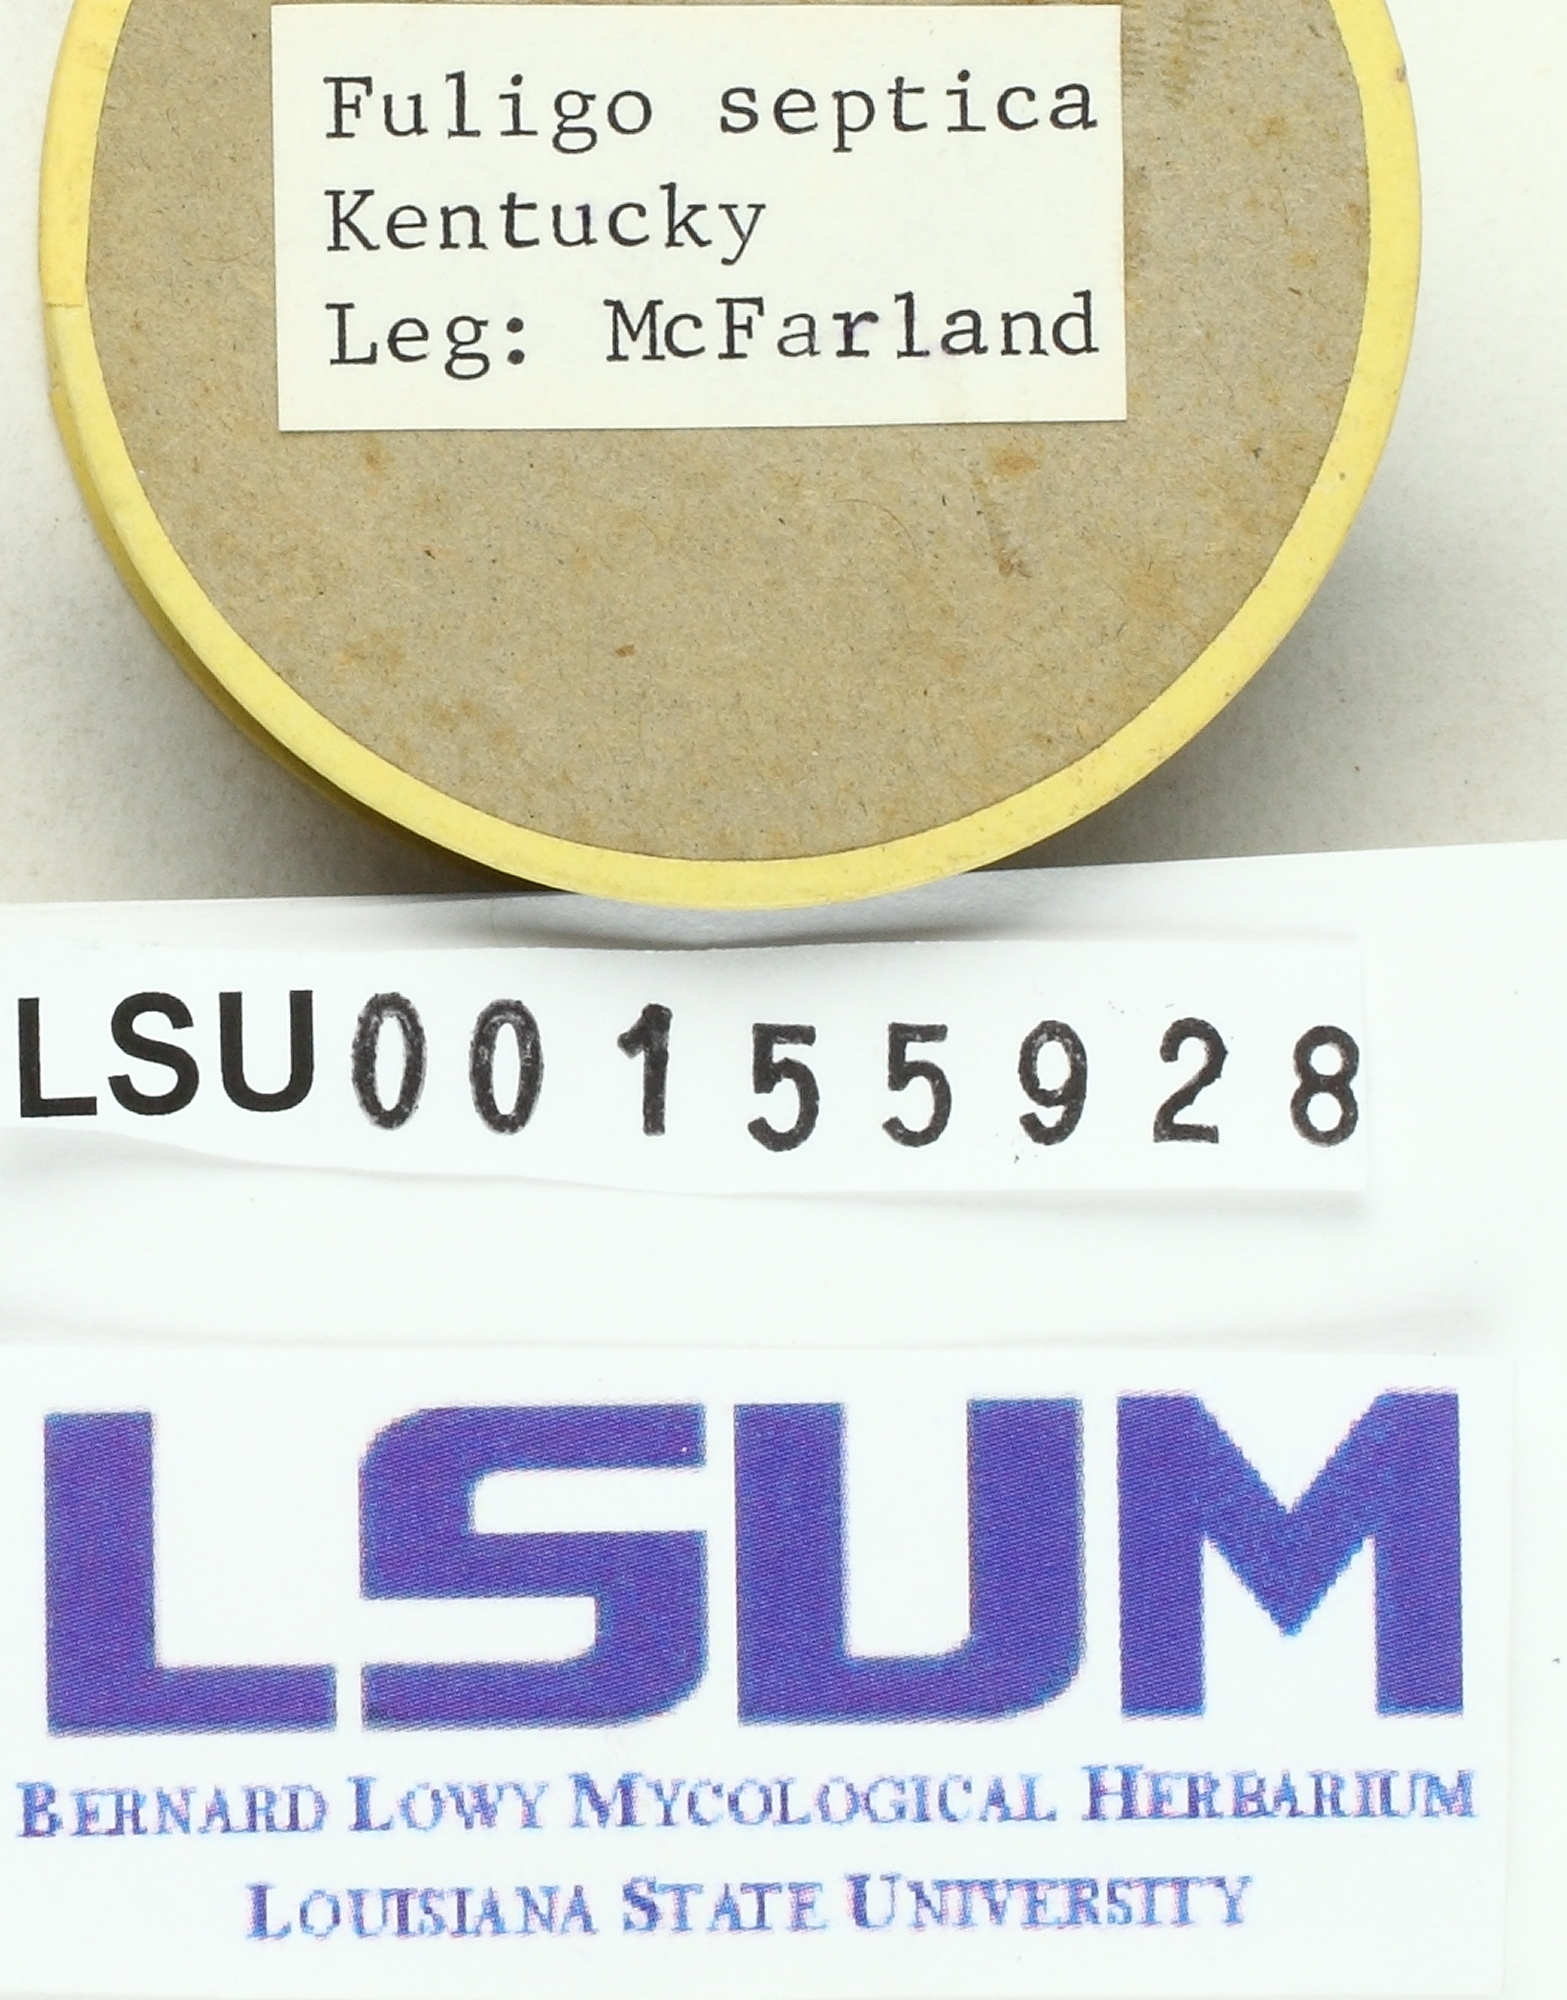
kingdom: Protozoa
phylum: Mycetozoa
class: Myxomycetes
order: Physarales
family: Physaraceae
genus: Fuligo
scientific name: Fuligo septica
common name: Dog vomit slime mold
